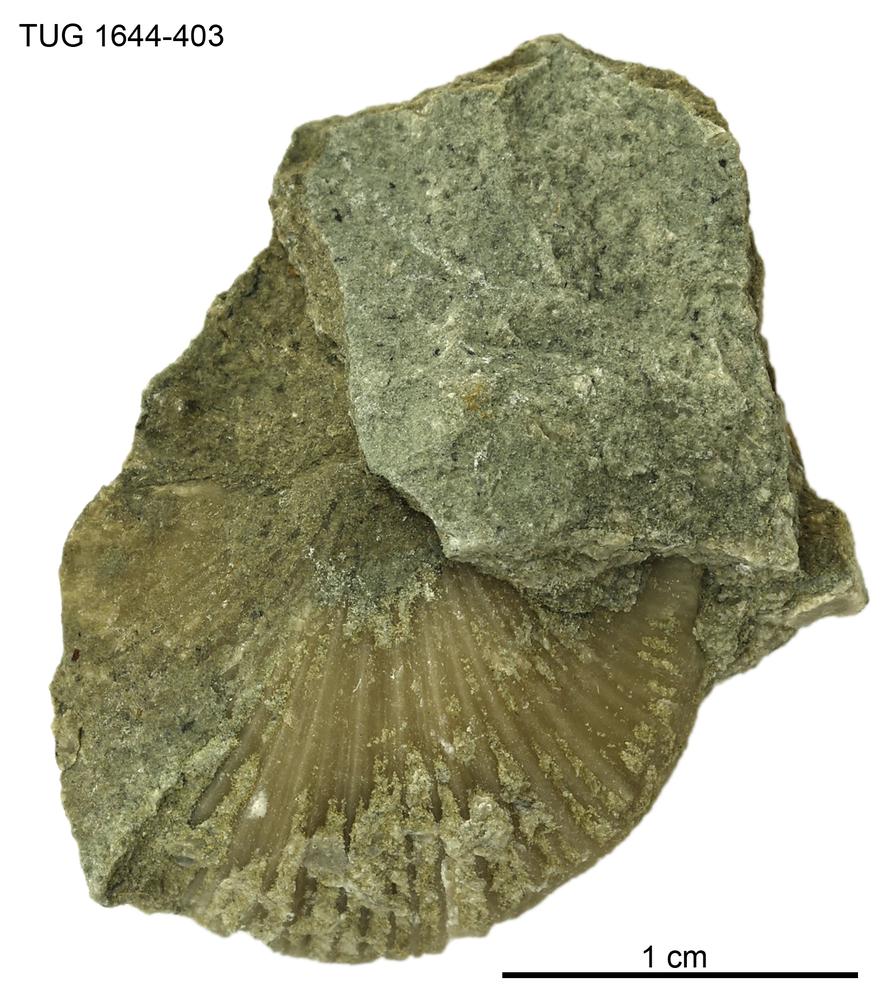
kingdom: Animalia
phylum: Brachiopoda
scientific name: Brachiopoda
